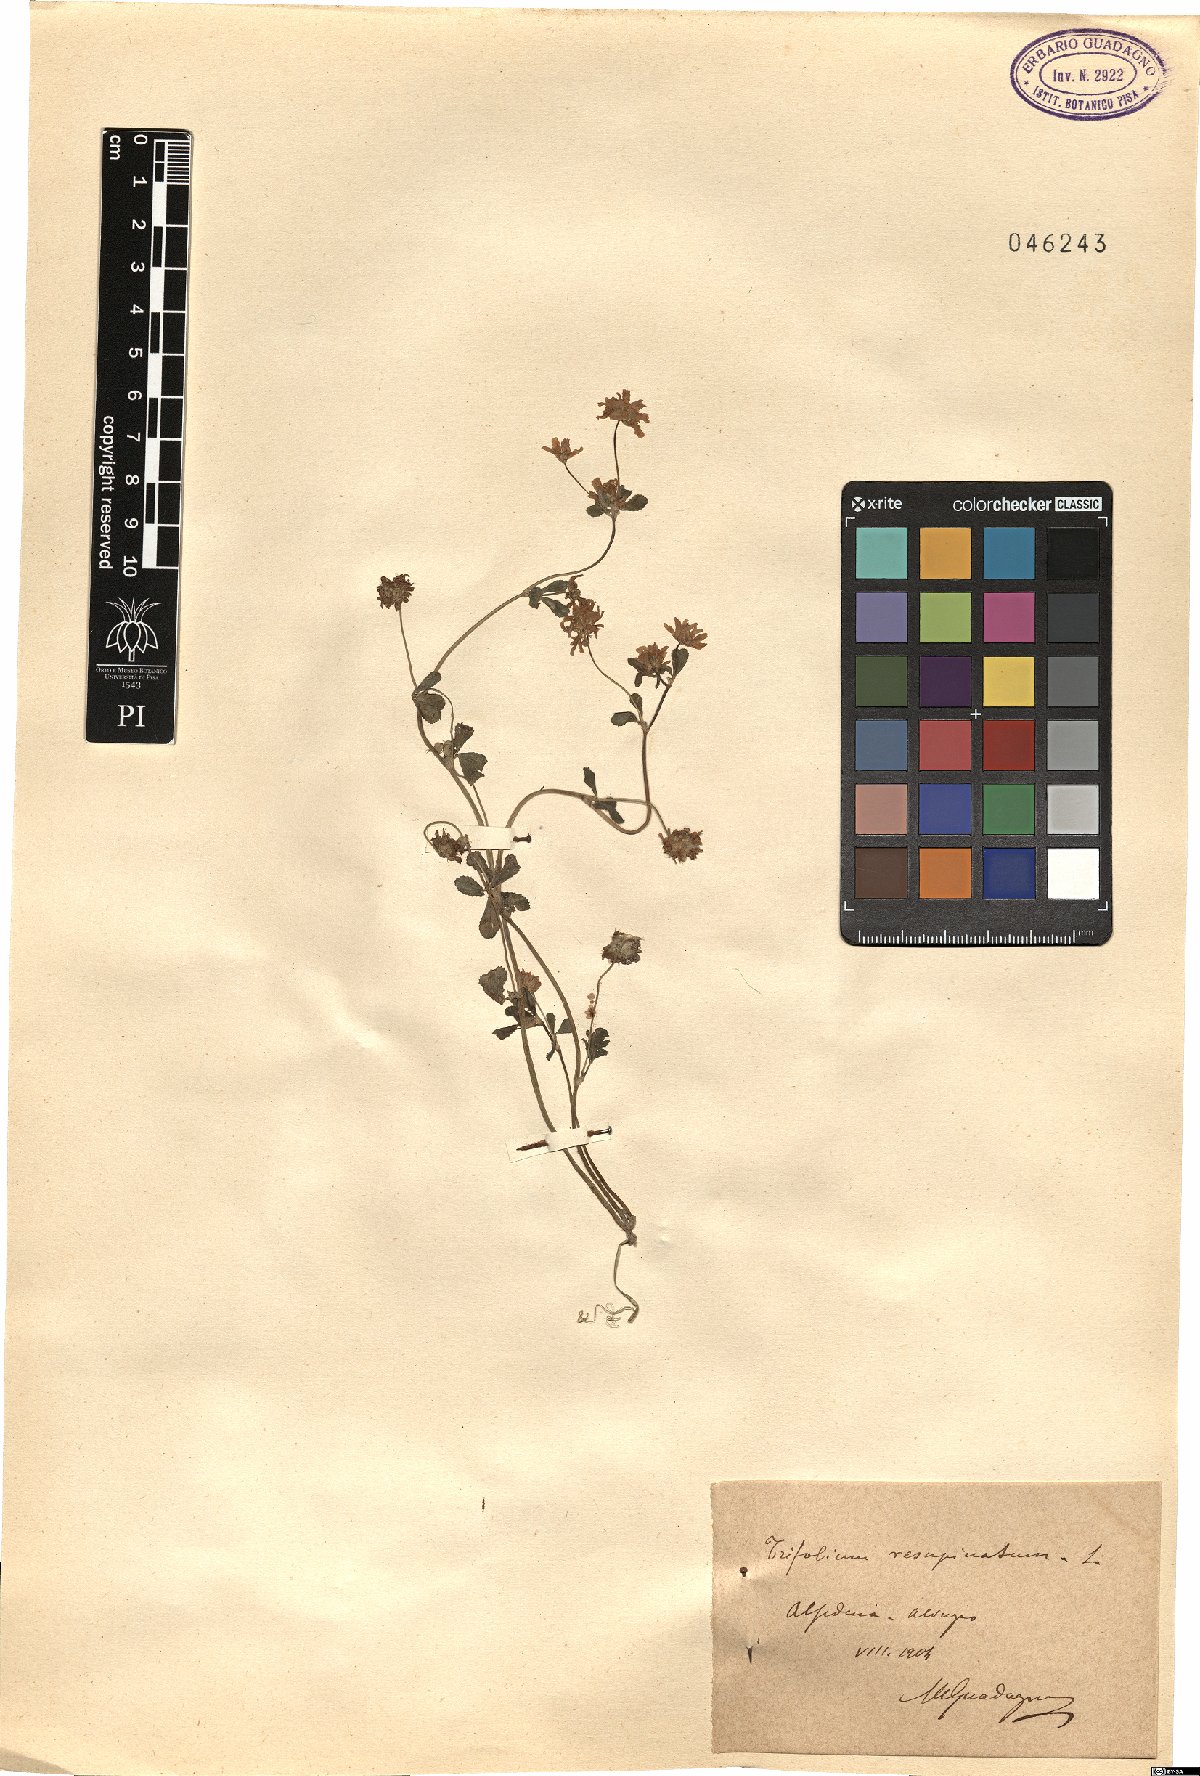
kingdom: Plantae
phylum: Tracheophyta
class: Magnoliopsida
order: Fabales
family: Fabaceae
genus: Trifolium
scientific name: Trifolium resupinatum
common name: Reversed clover
